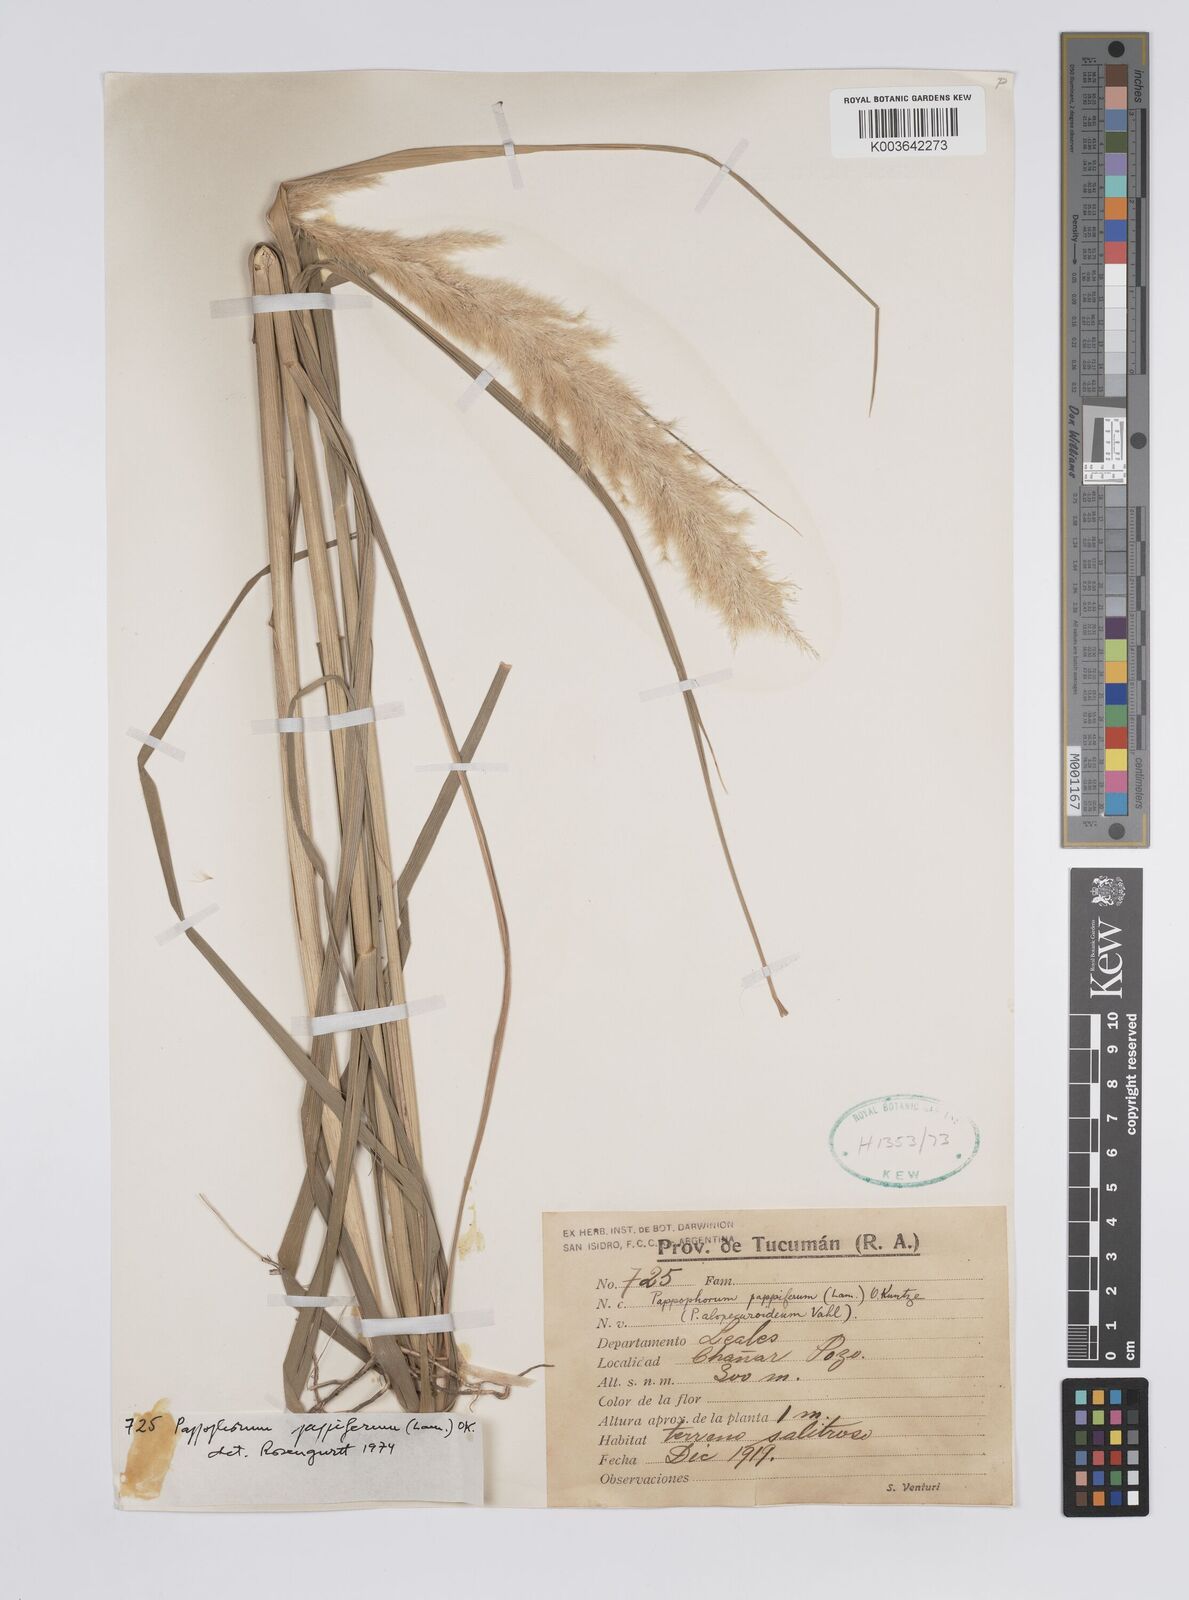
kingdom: Plantae
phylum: Tracheophyta
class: Liliopsida
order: Poales
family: Poaceae
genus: Pappophorum
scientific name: Pappophorum pappiferum
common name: Crabgrass
